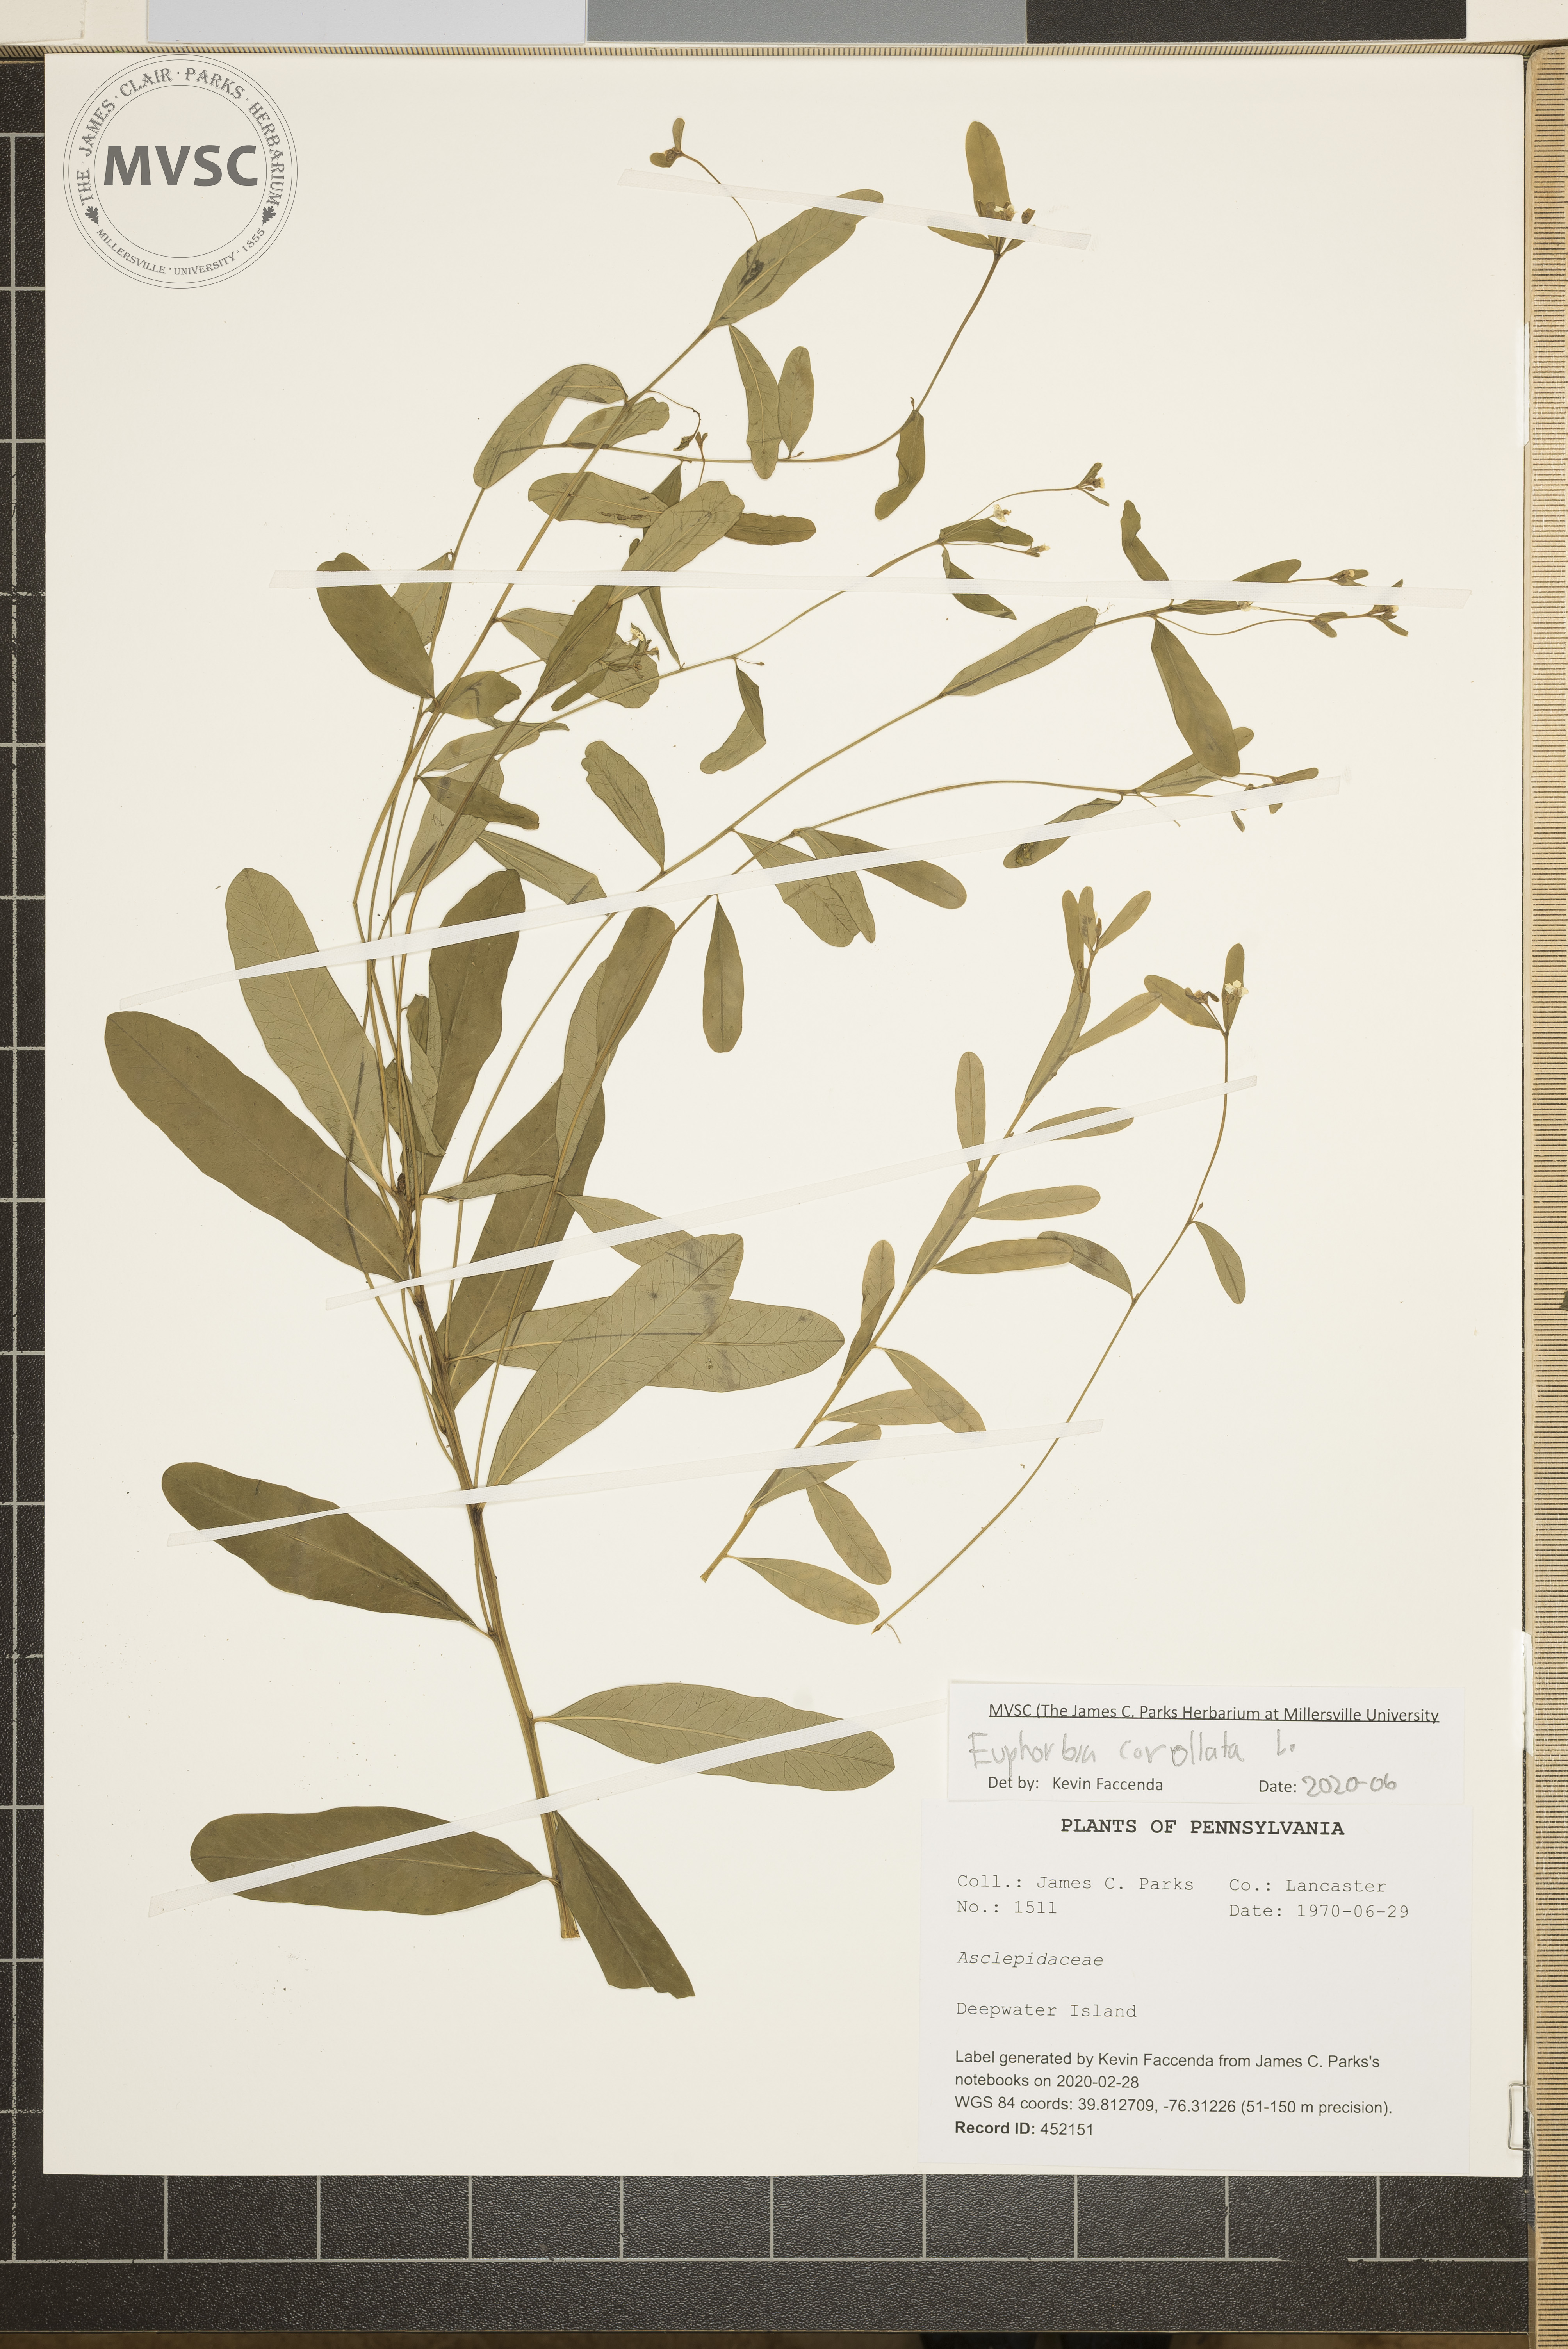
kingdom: Plantae
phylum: Tracheophyta
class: Magnoliopsida
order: Malpighiales
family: Euphorbiaceae
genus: Euphorbia
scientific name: Euphorbia corollata
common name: Flowering spurge
